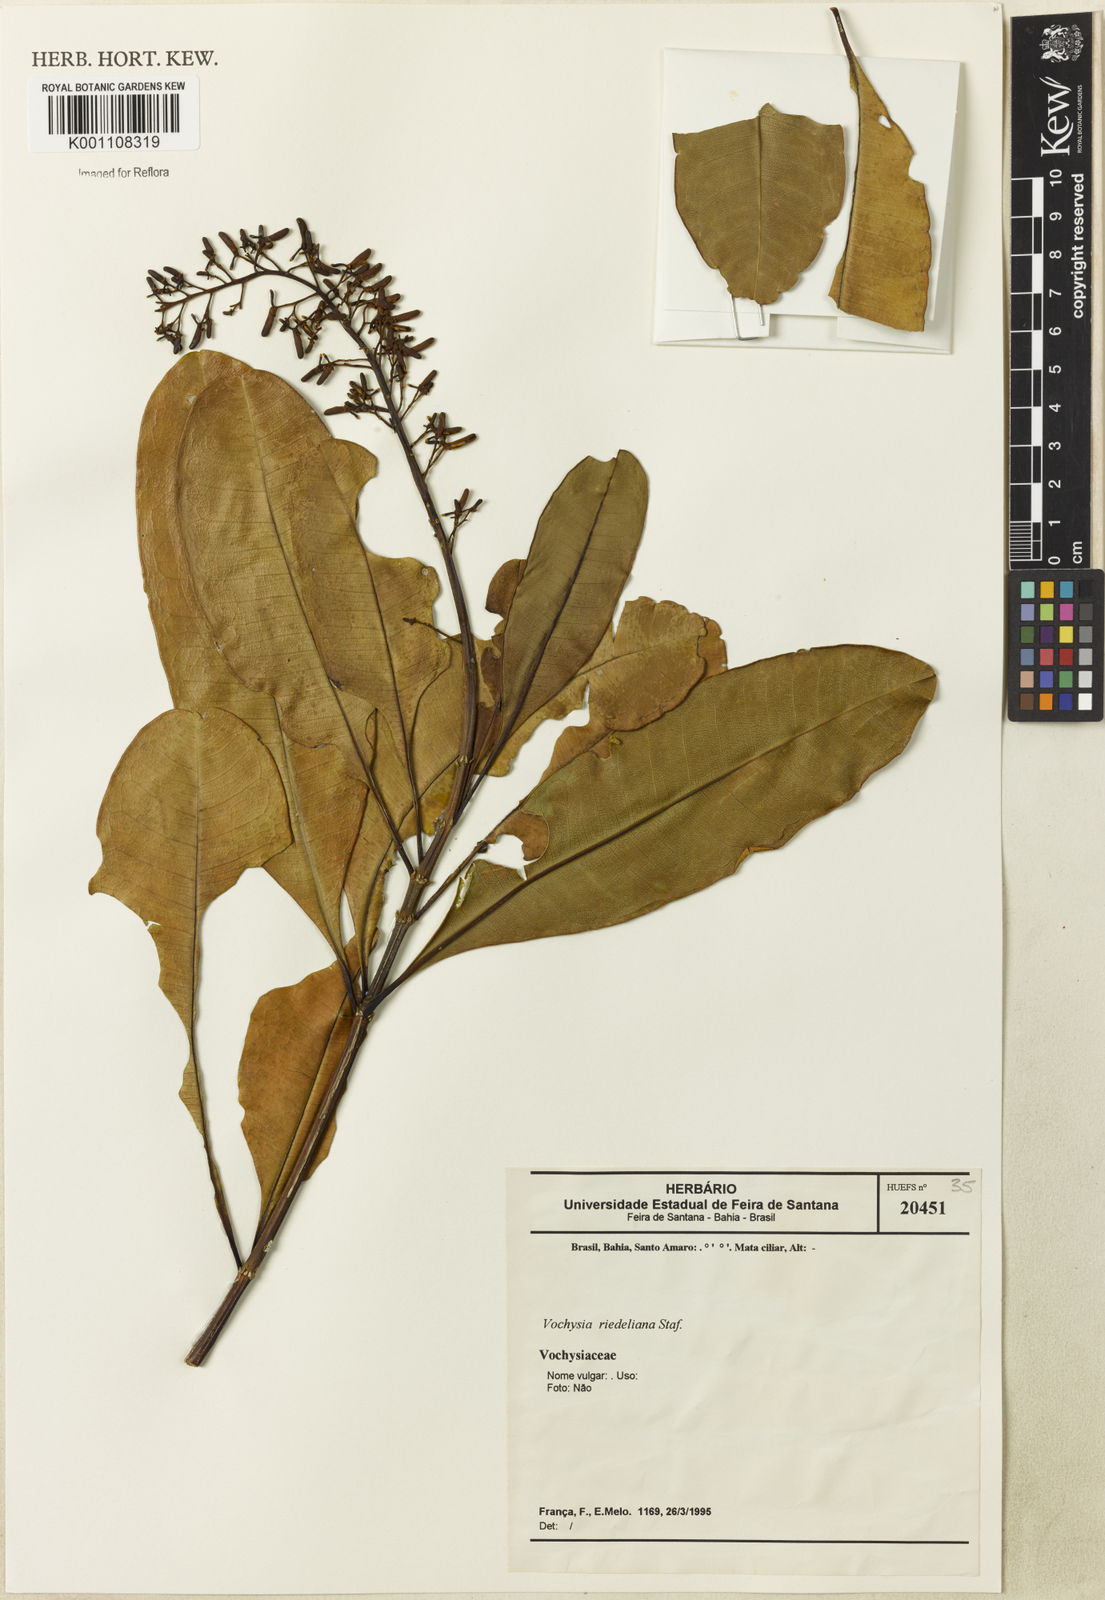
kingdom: Plantae
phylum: Tracheophyta
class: Magnoliopsida
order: Myrtales
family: Vochysiaceae
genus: Vochysia
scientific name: Vochysia riedeliana
